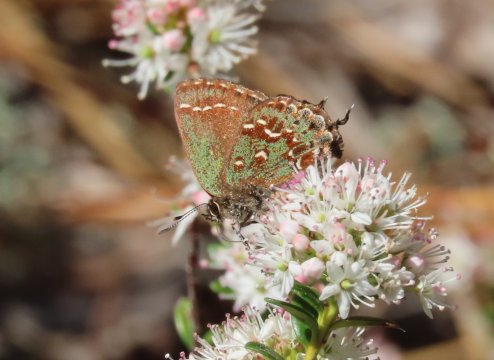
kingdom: Animalia
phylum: Arthropoda
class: Insecta
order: Lepidoptera
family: Lycaenidae
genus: Mitoura
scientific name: Mitoura hesseli
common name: Hessel's Hairstreak
